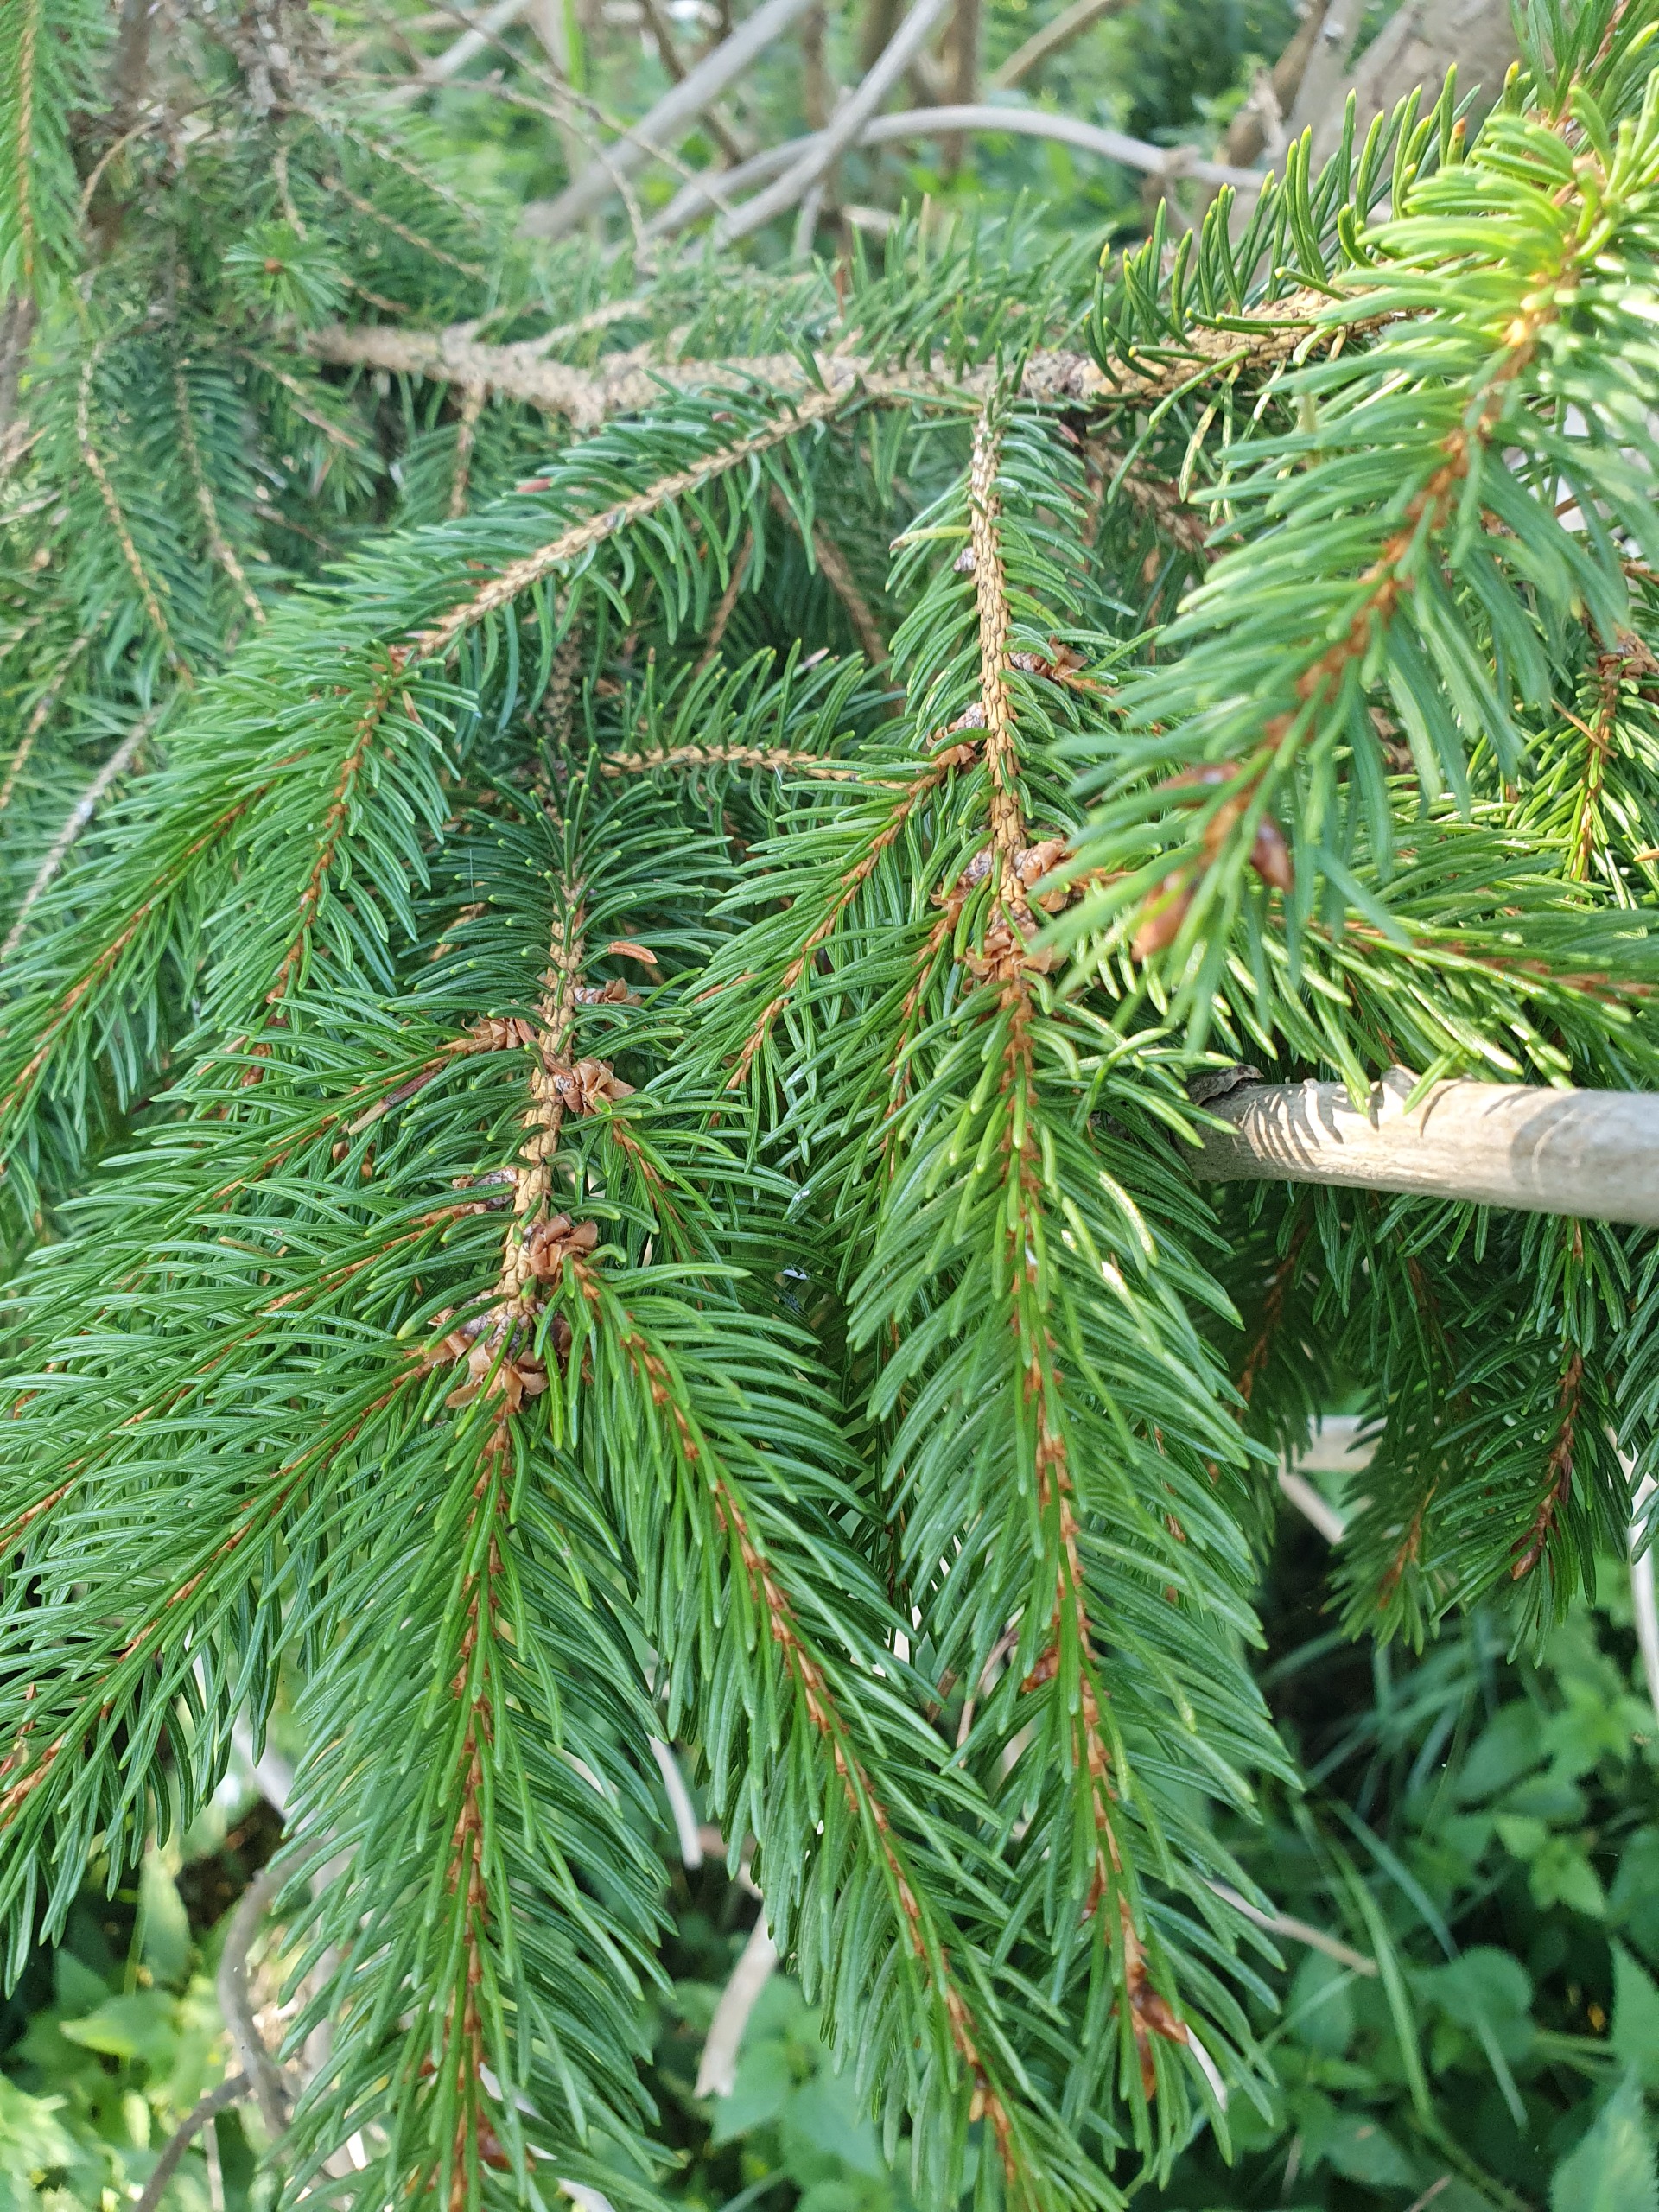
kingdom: Plantae
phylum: Tracheophyta
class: Pinopsida
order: Pinales
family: Pinaceae
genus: Picea
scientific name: Picea abies
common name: Rød-gran
